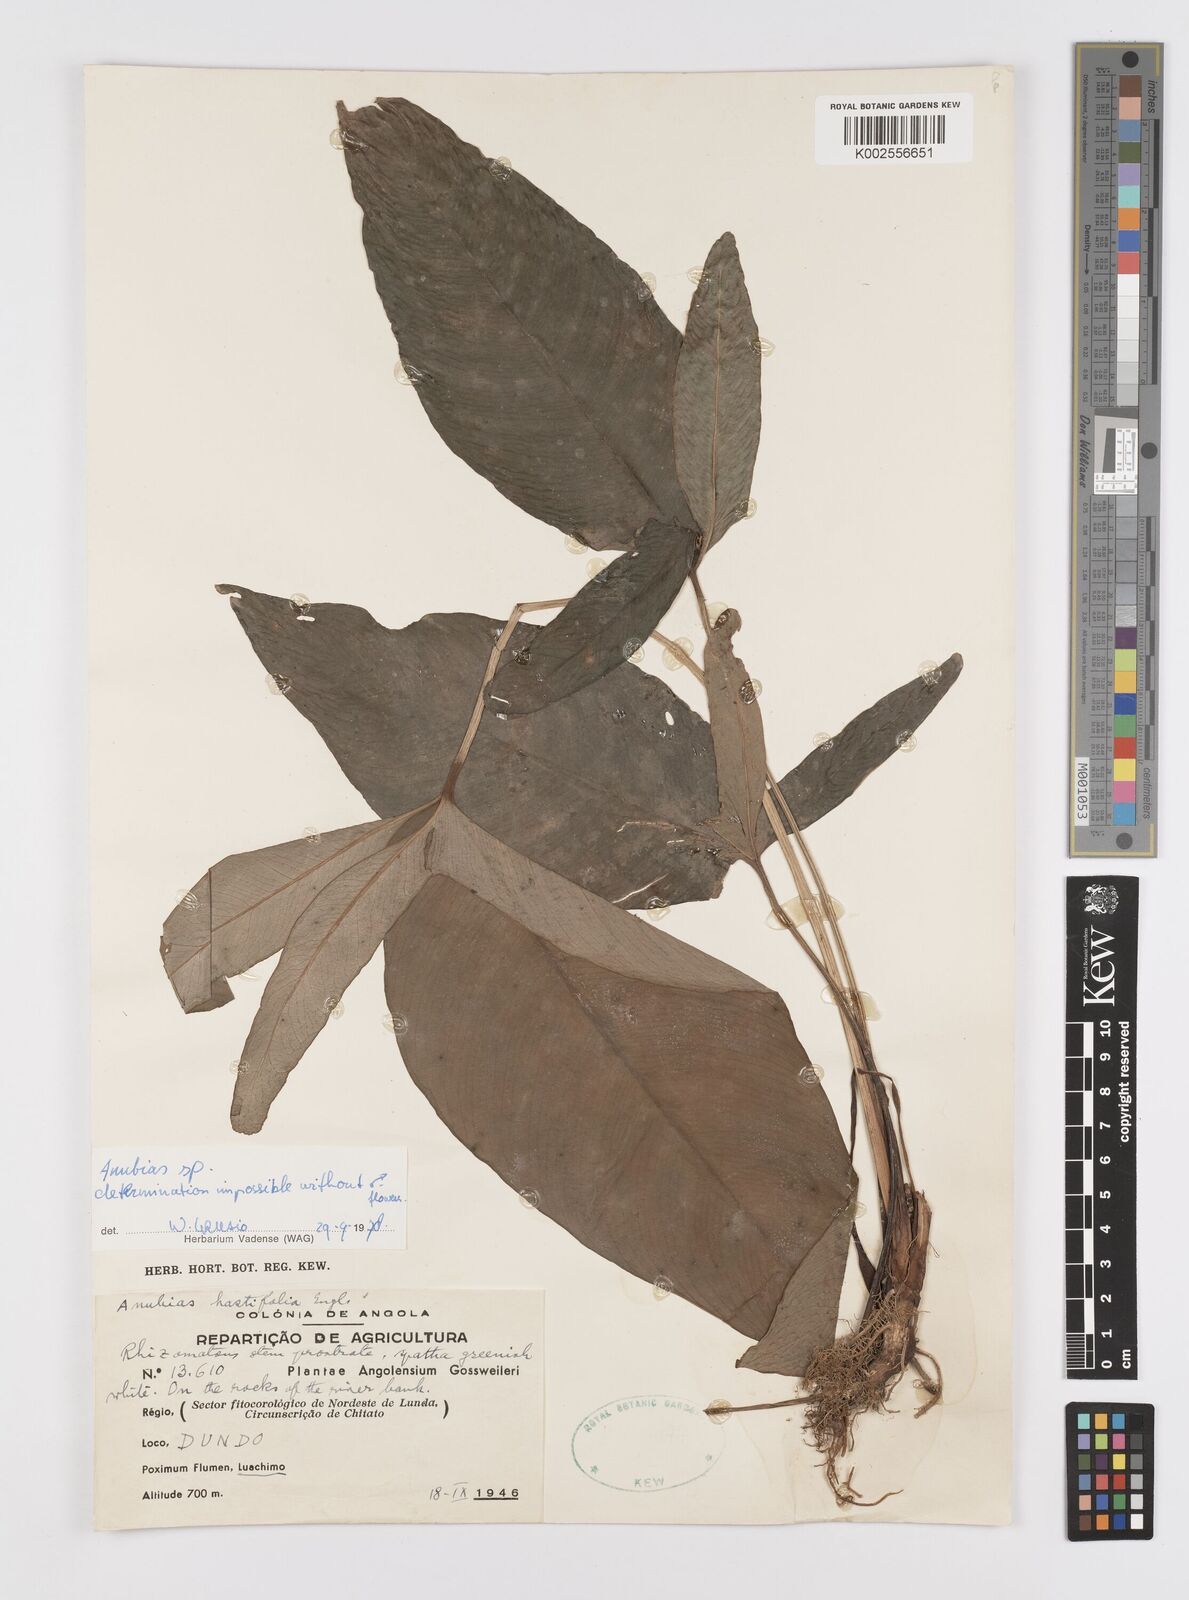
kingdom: Plantae
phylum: Tracheophyta
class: Liliopsida
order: Alismatales
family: Araceae
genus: Anubias
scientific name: Anubias
